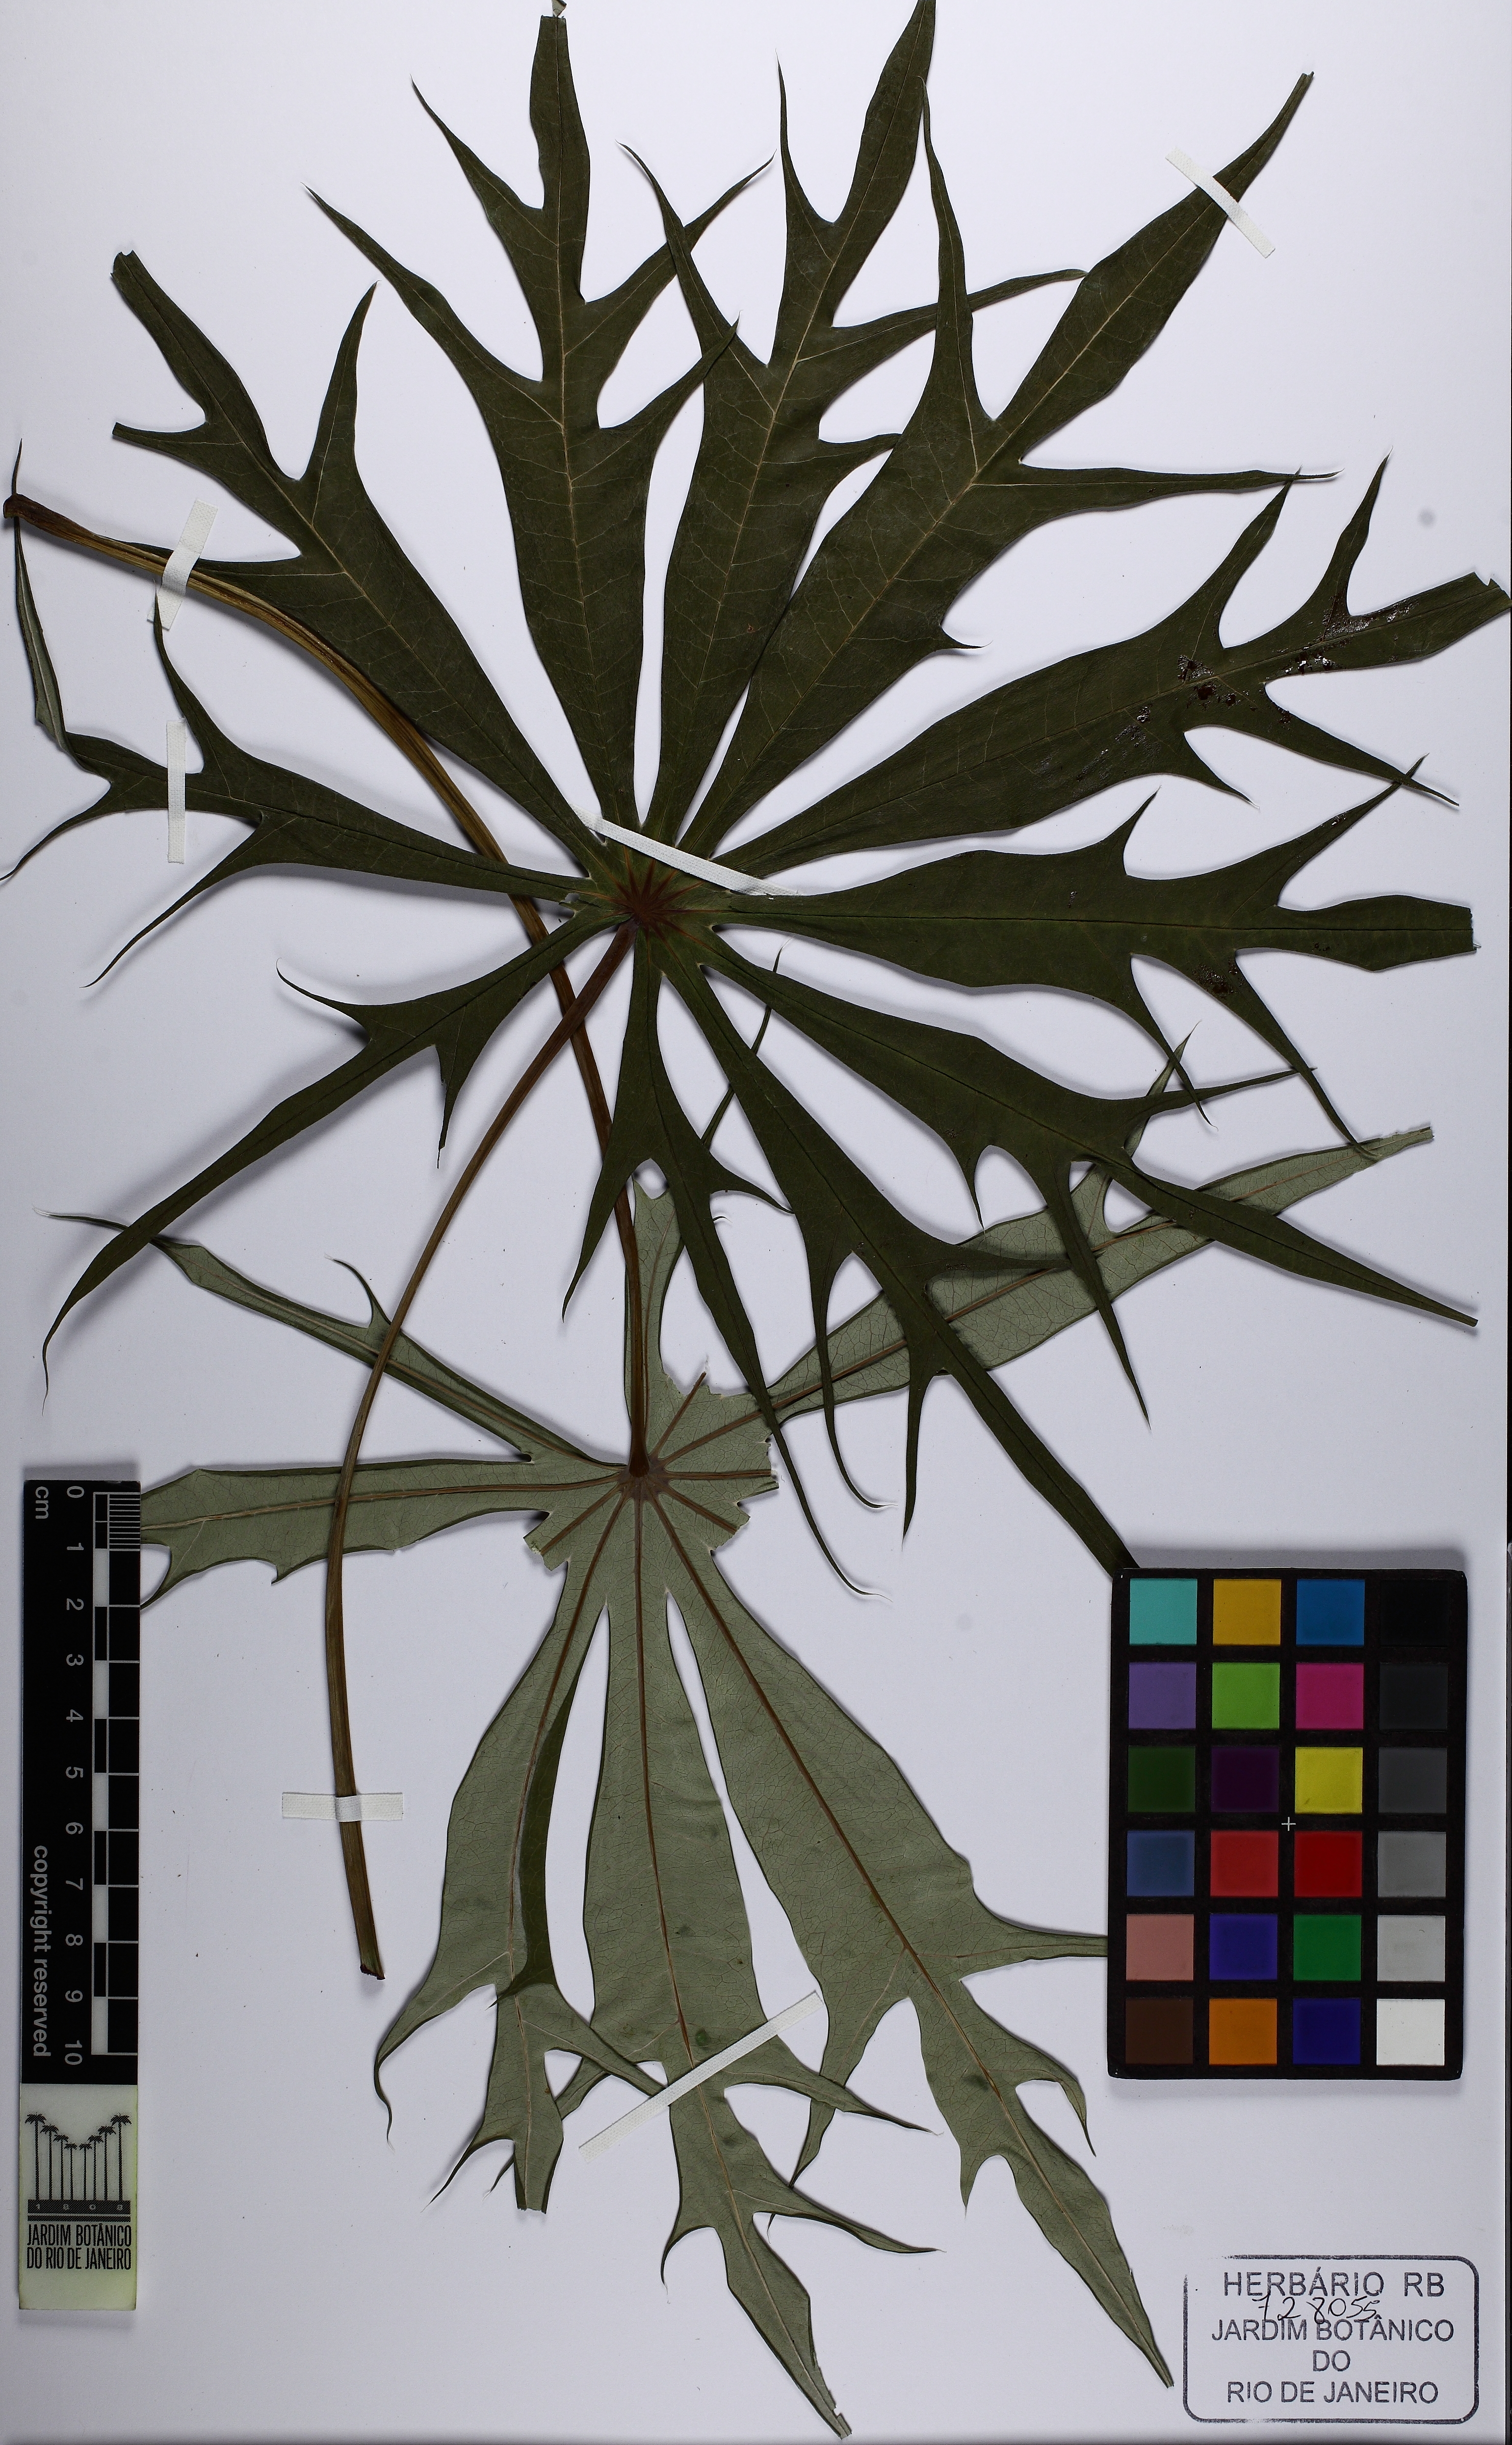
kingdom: Plantae
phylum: Tracheophyta
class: Magnoliopsida
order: Malpighiales
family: Euphorbiaceae
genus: Jatropha
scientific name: Jatropha multifida
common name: Coralbush
